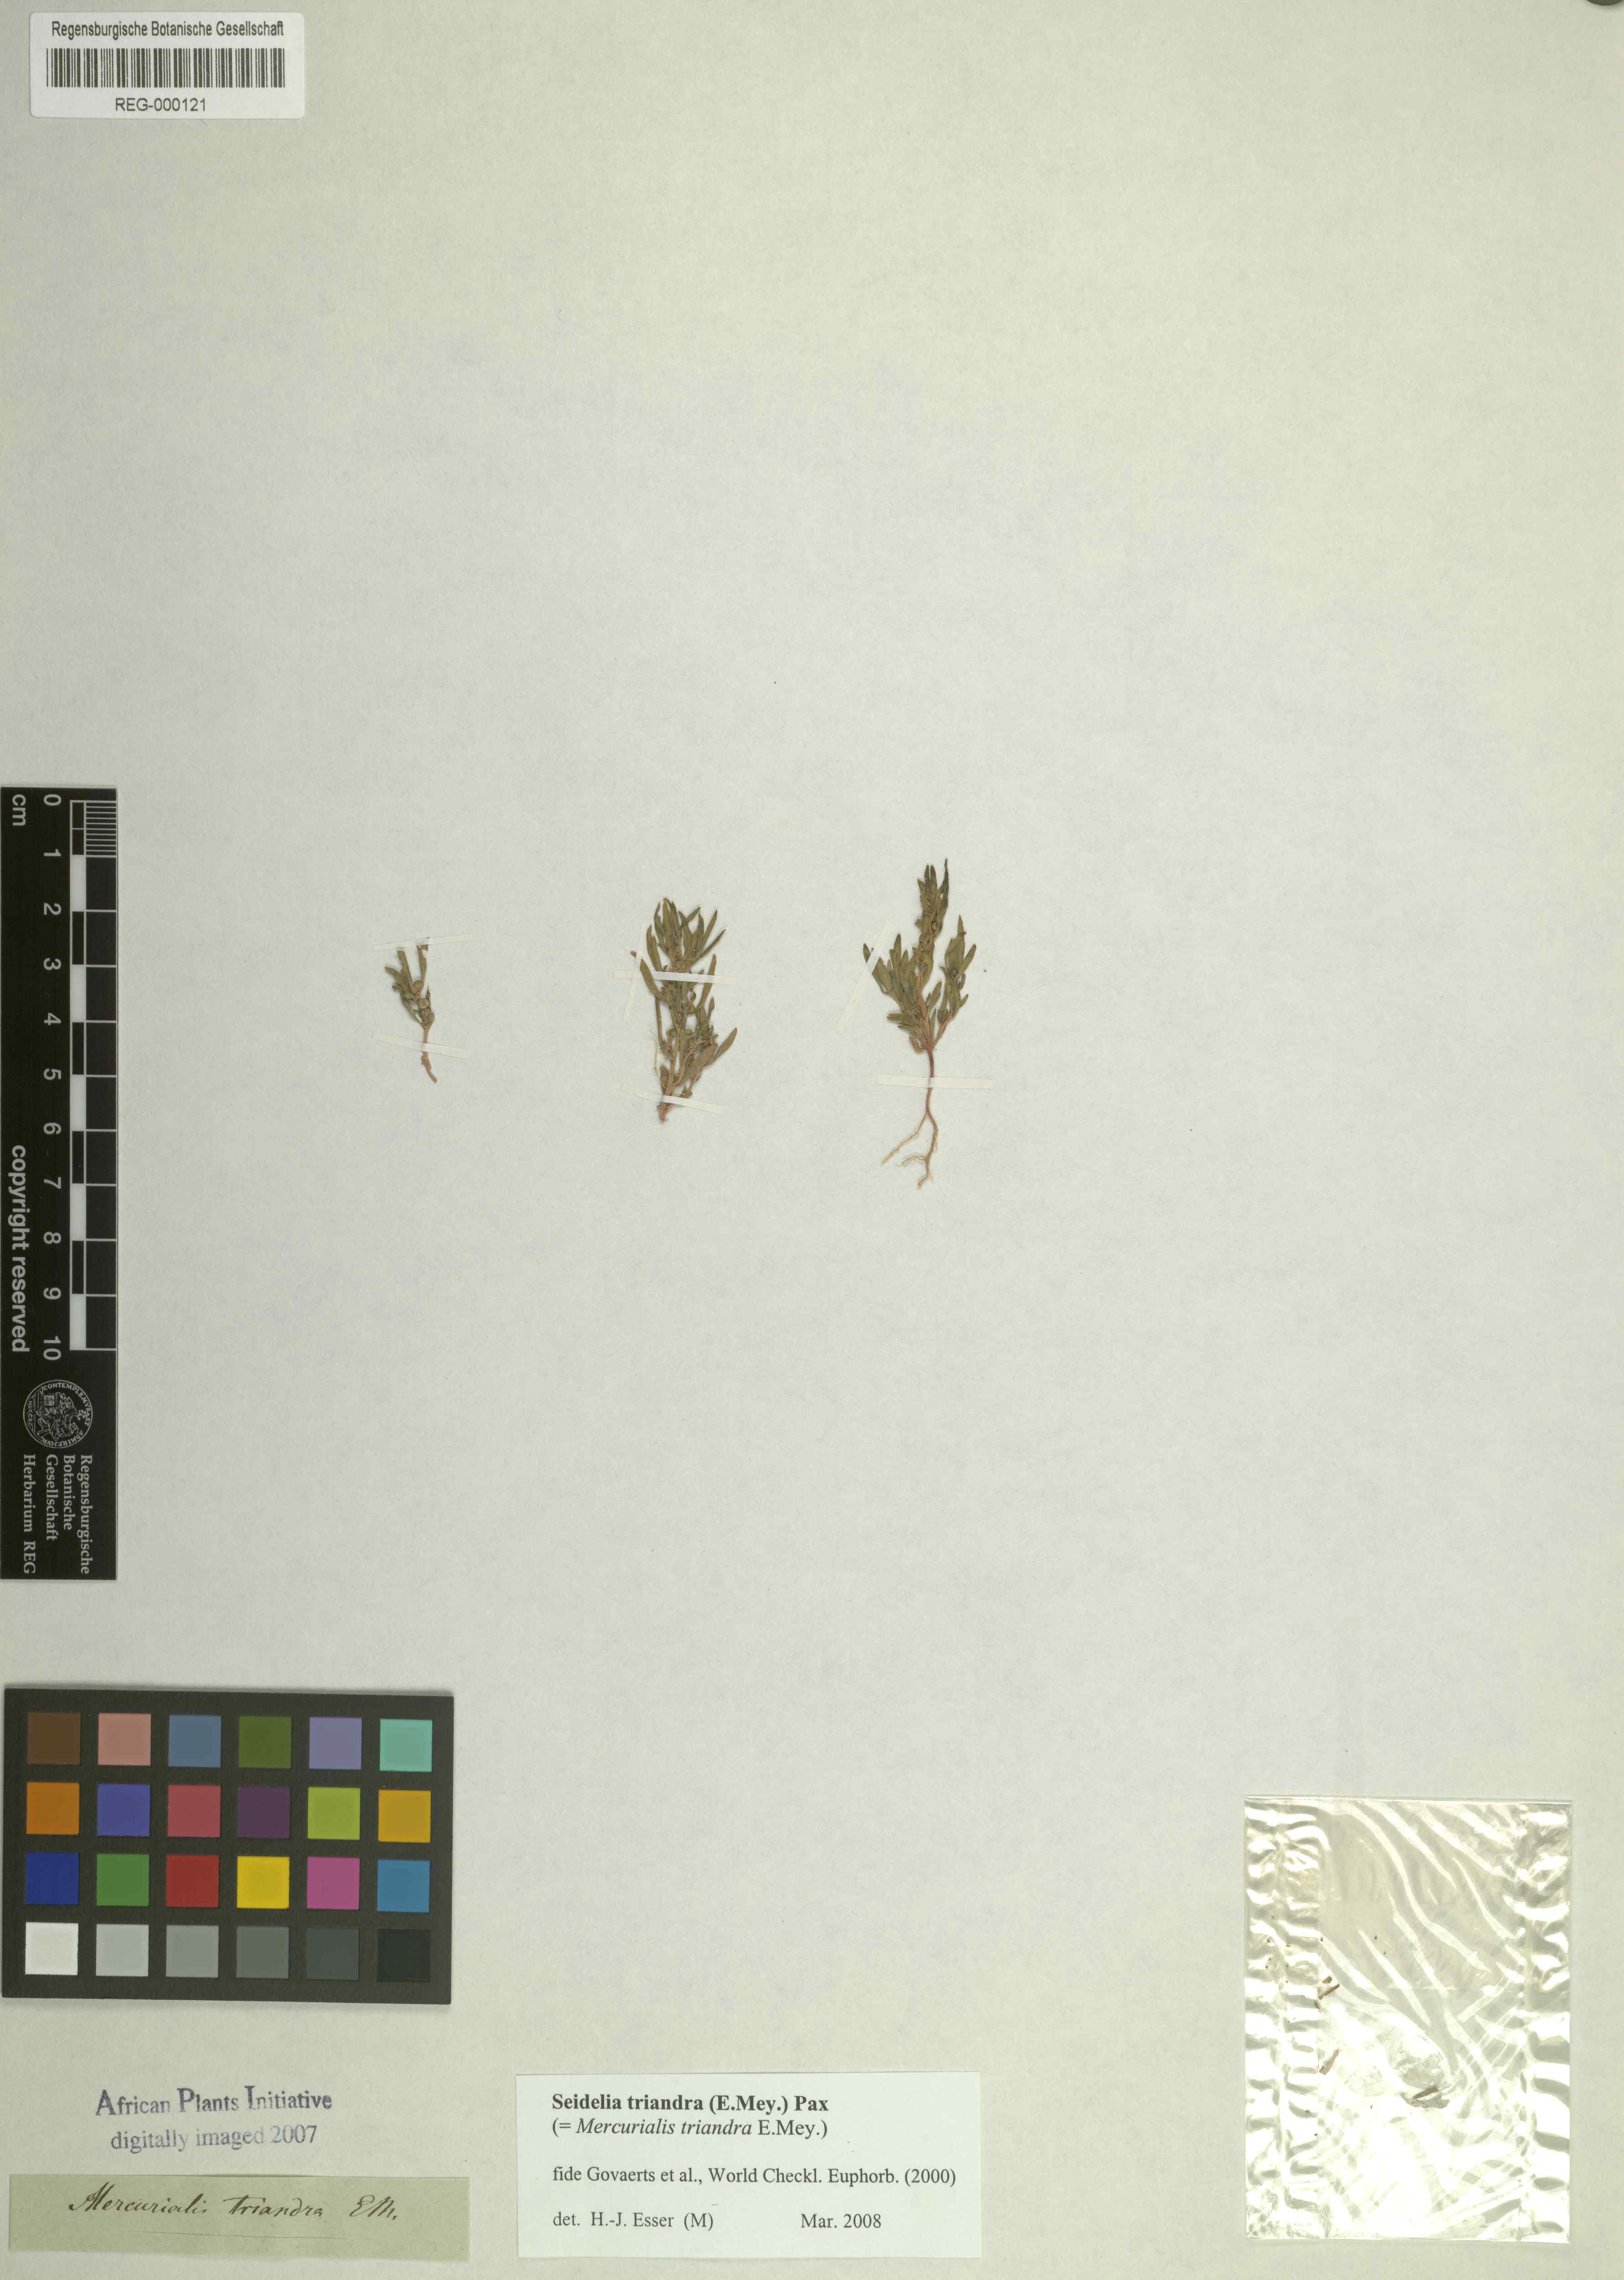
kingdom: Plantae
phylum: Tracheophyta
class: Magnoliopsida
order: Malpighiales
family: Euphorbiaceae
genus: Seidelia
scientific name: Seidelia triandra
